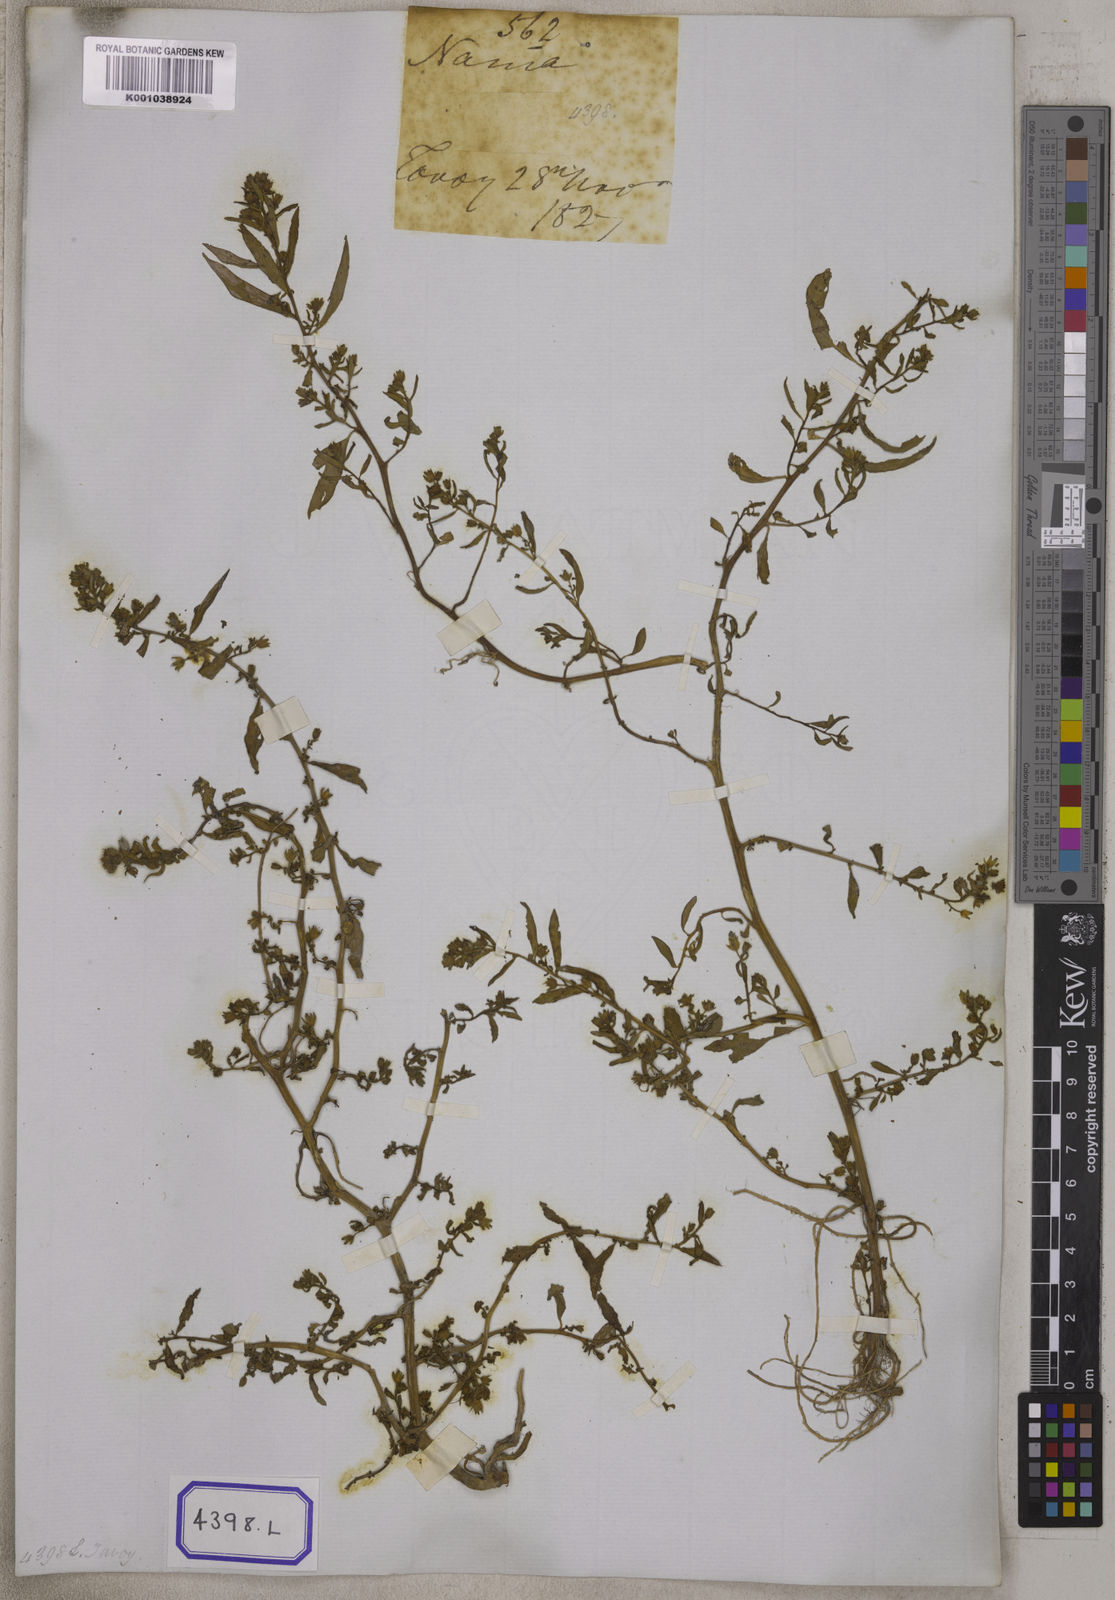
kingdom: Plantae
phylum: Tracheophyta
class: Magnoliopsida
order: Solanales
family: Hydroleaceae
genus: Hydrolea
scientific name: Hydrolea zeylanica
